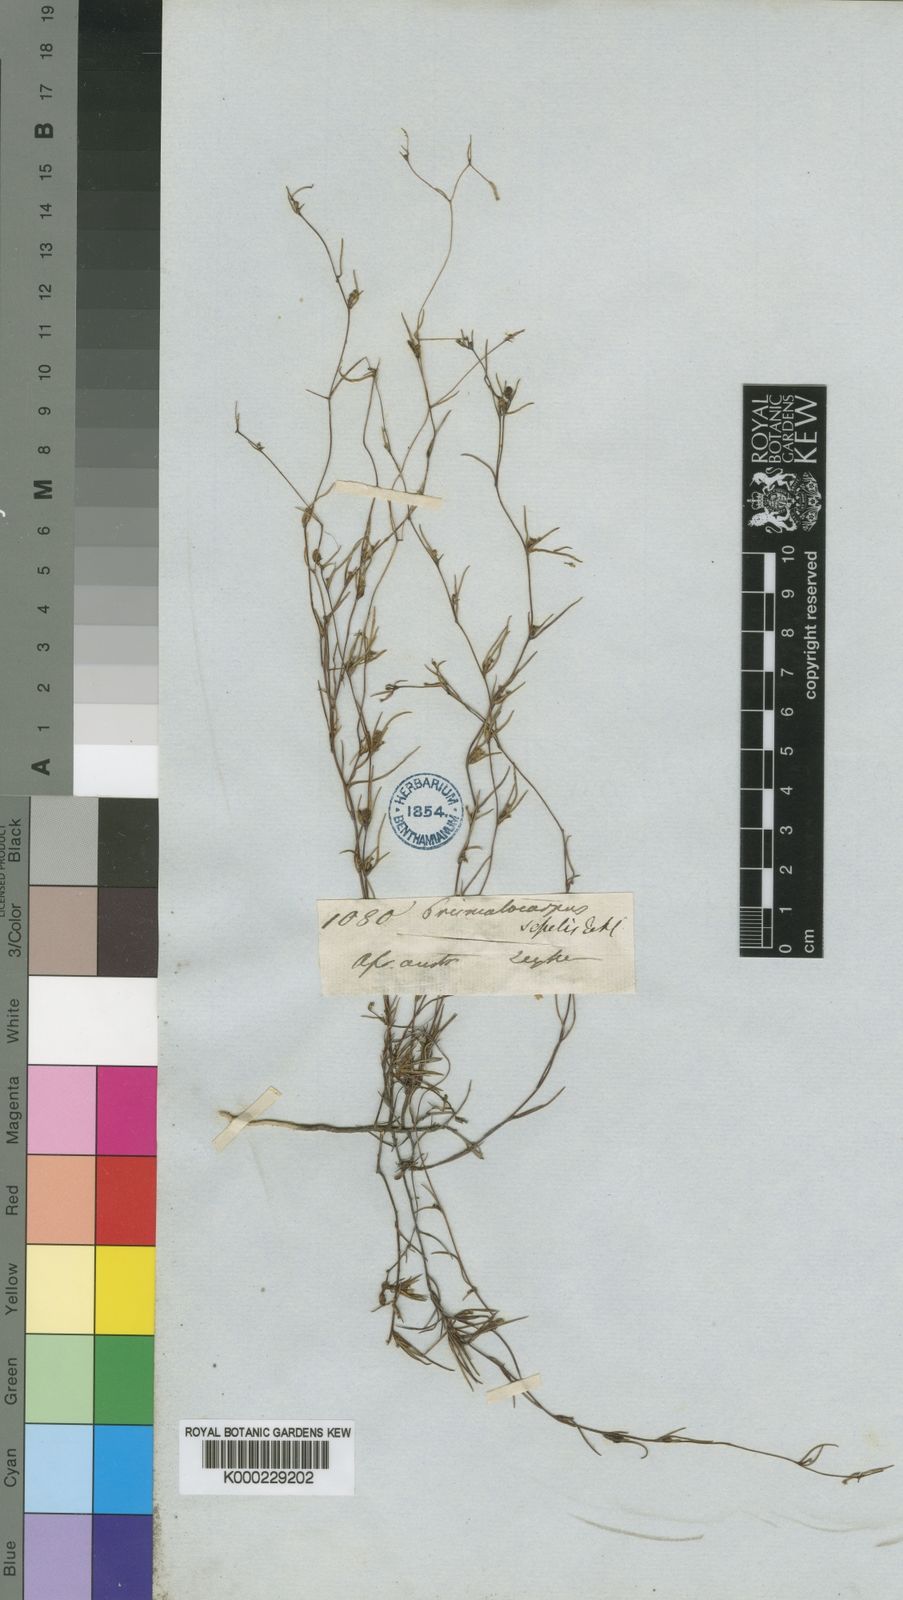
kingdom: Plantae
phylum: Tracheophyta
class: Magnoliopsida
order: Asterales
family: Campanulaceae
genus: Prismatocarpus
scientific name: Prismatocarpus sessilis
